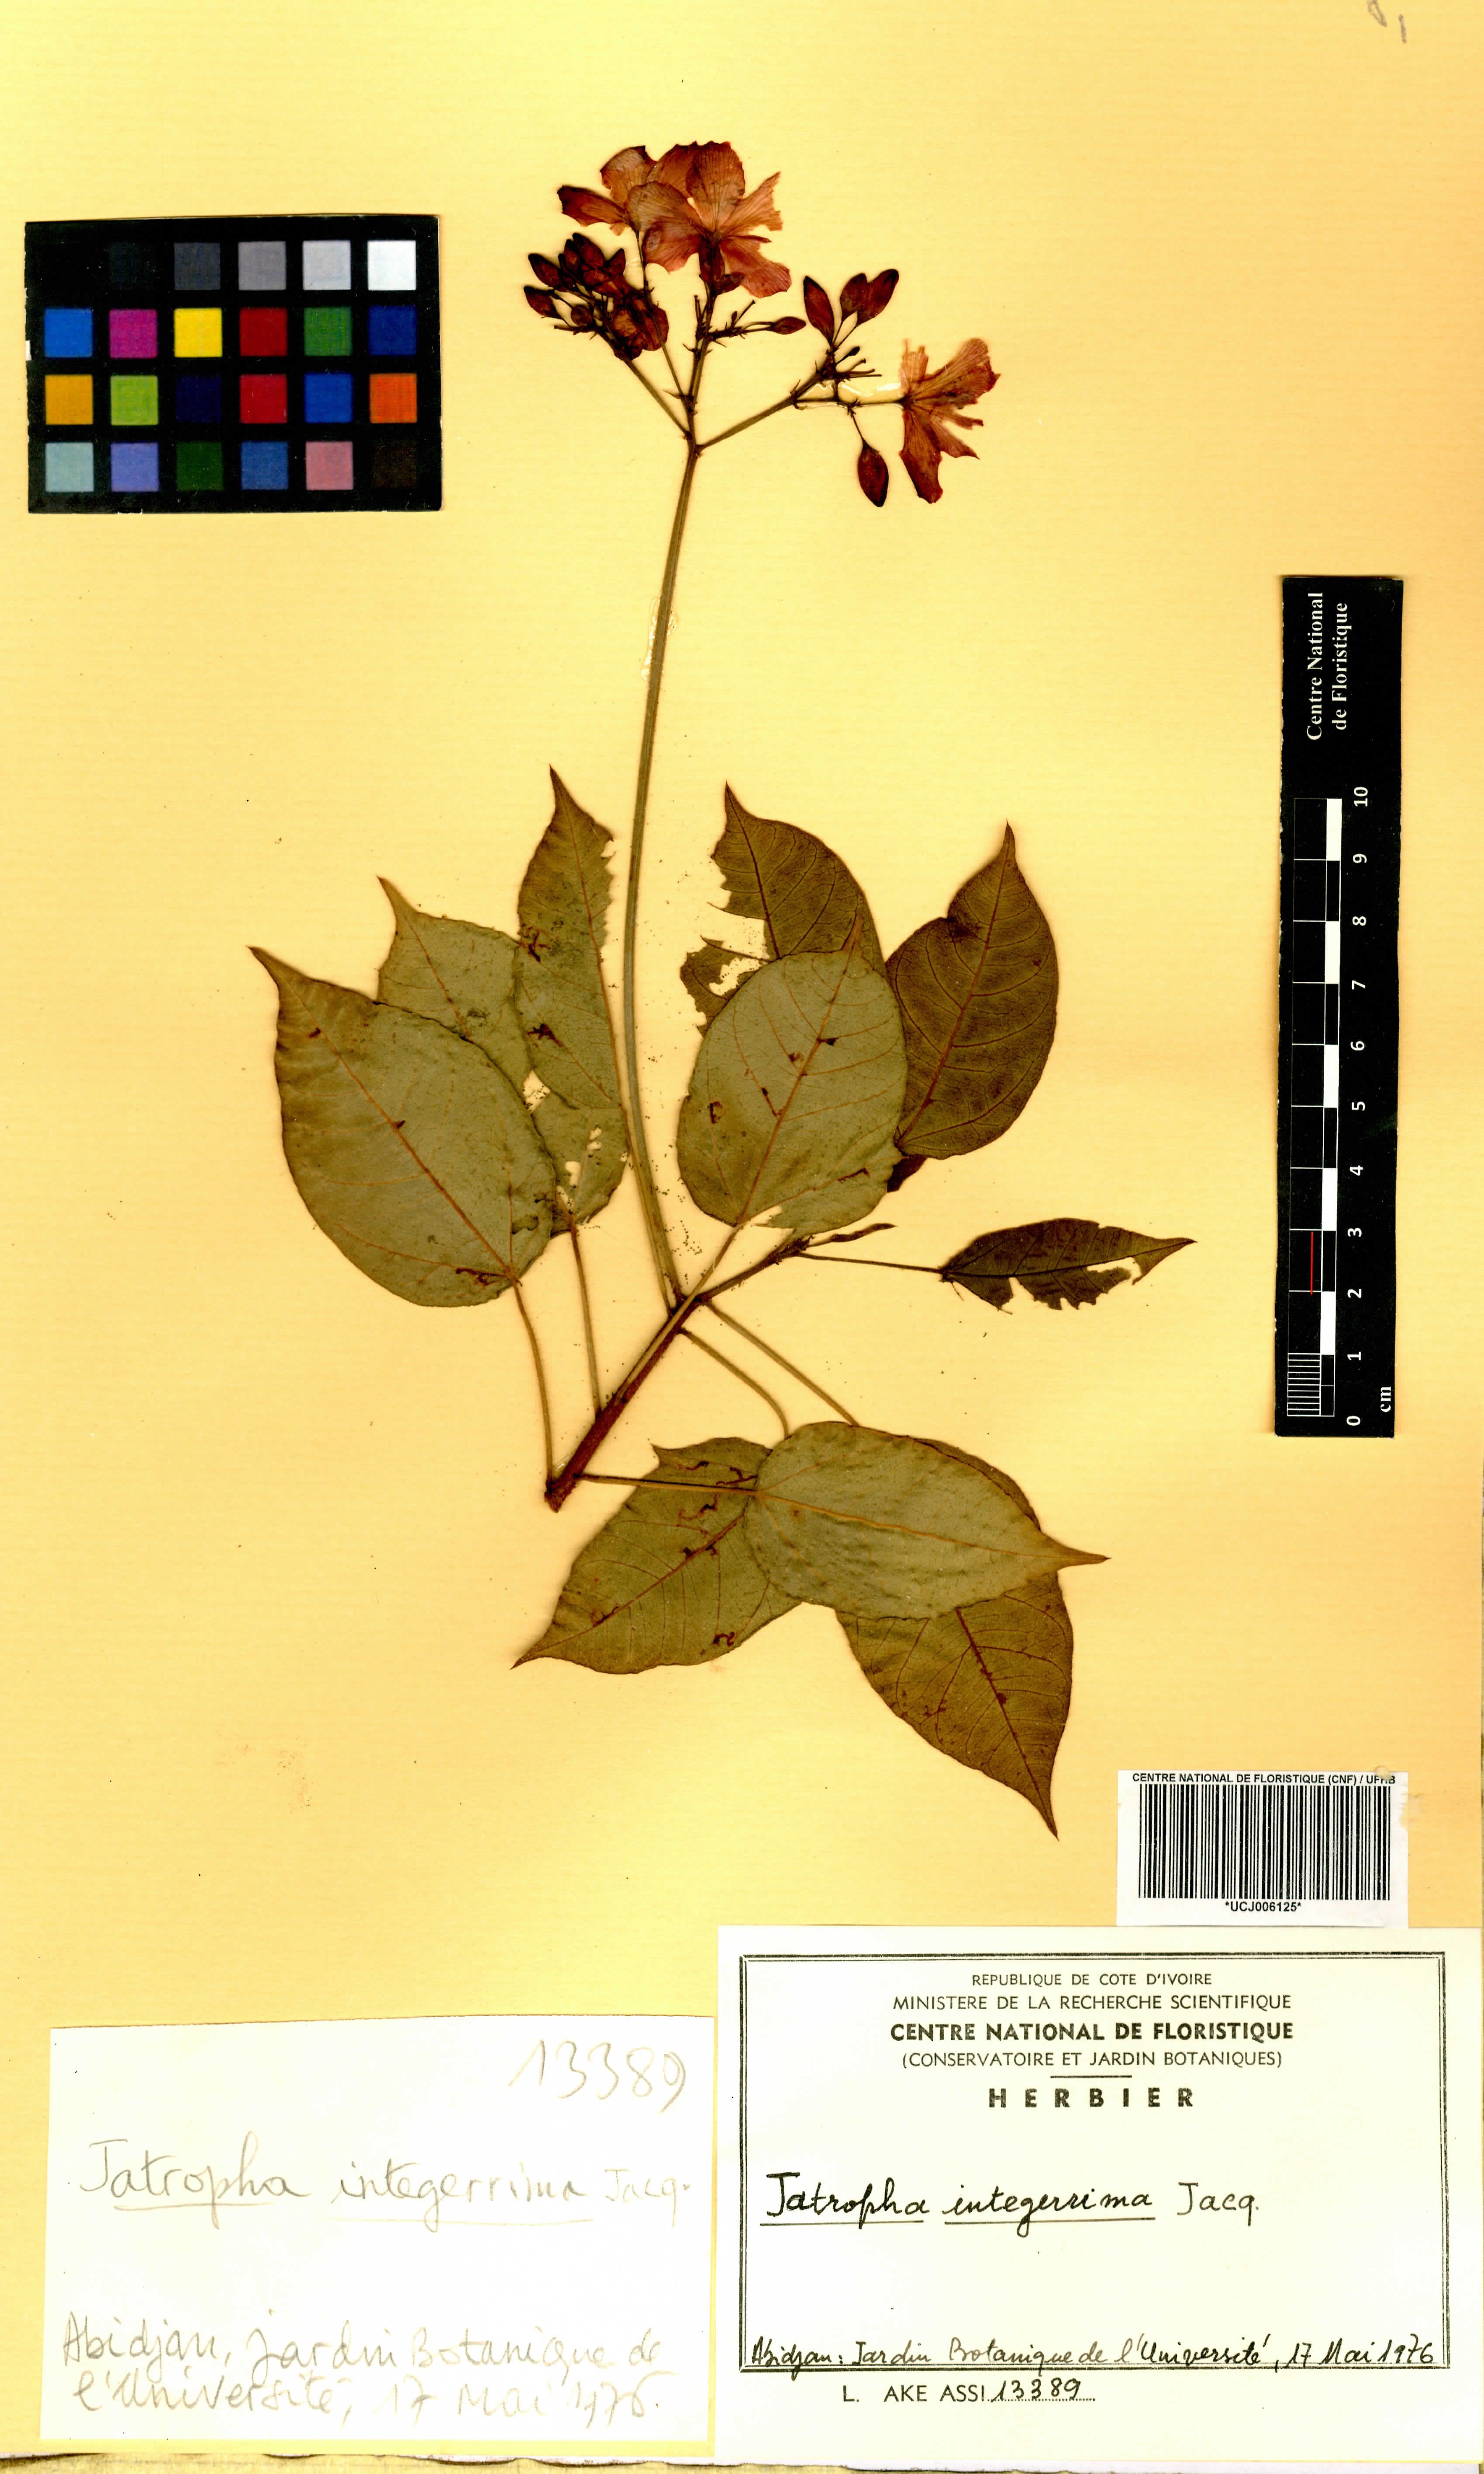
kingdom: Plantae
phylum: Tracheophyta
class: Magnoliopsida
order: Malpighiales
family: Euphorbiaceae
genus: Jatropha
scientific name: Jatropha integerrima
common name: Peregrina
